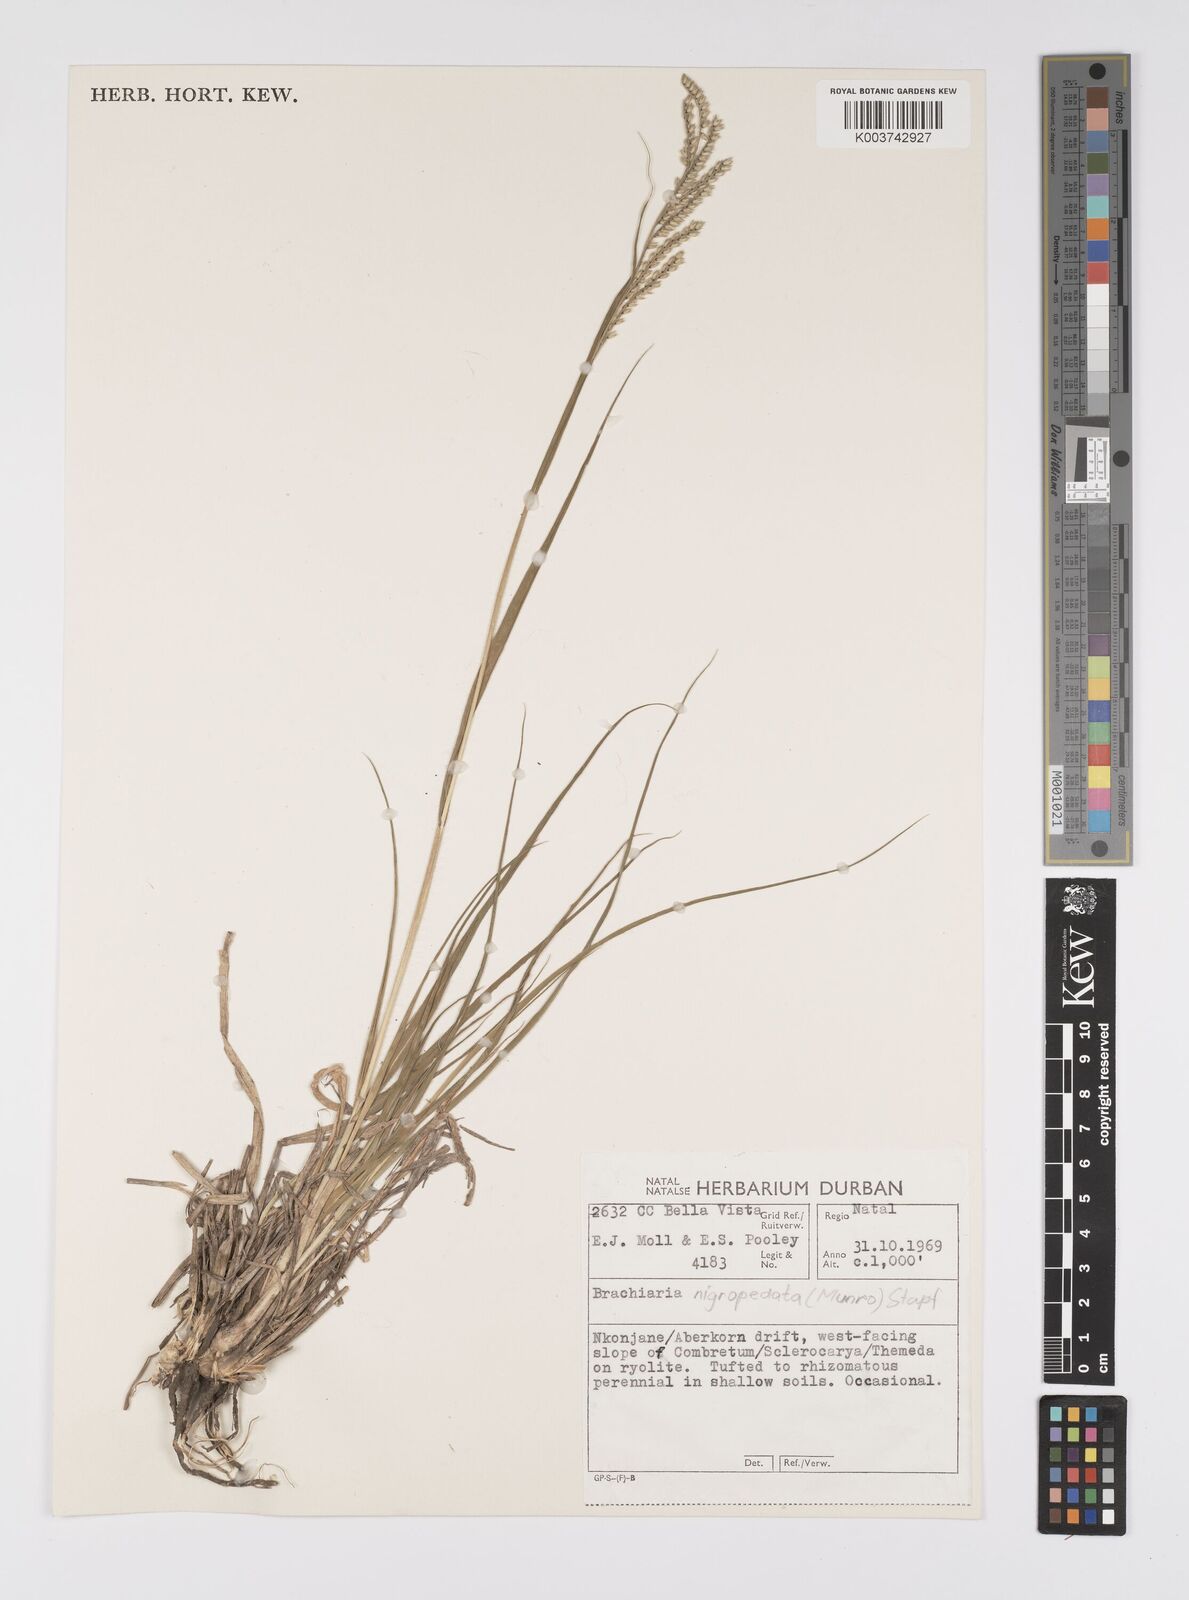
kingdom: Plantae
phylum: Tracheophyta
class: Liliopsida
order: Poales
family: Poaceae
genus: Urochloa
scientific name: Urochloa nigropedata
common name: Spotted signal grass
